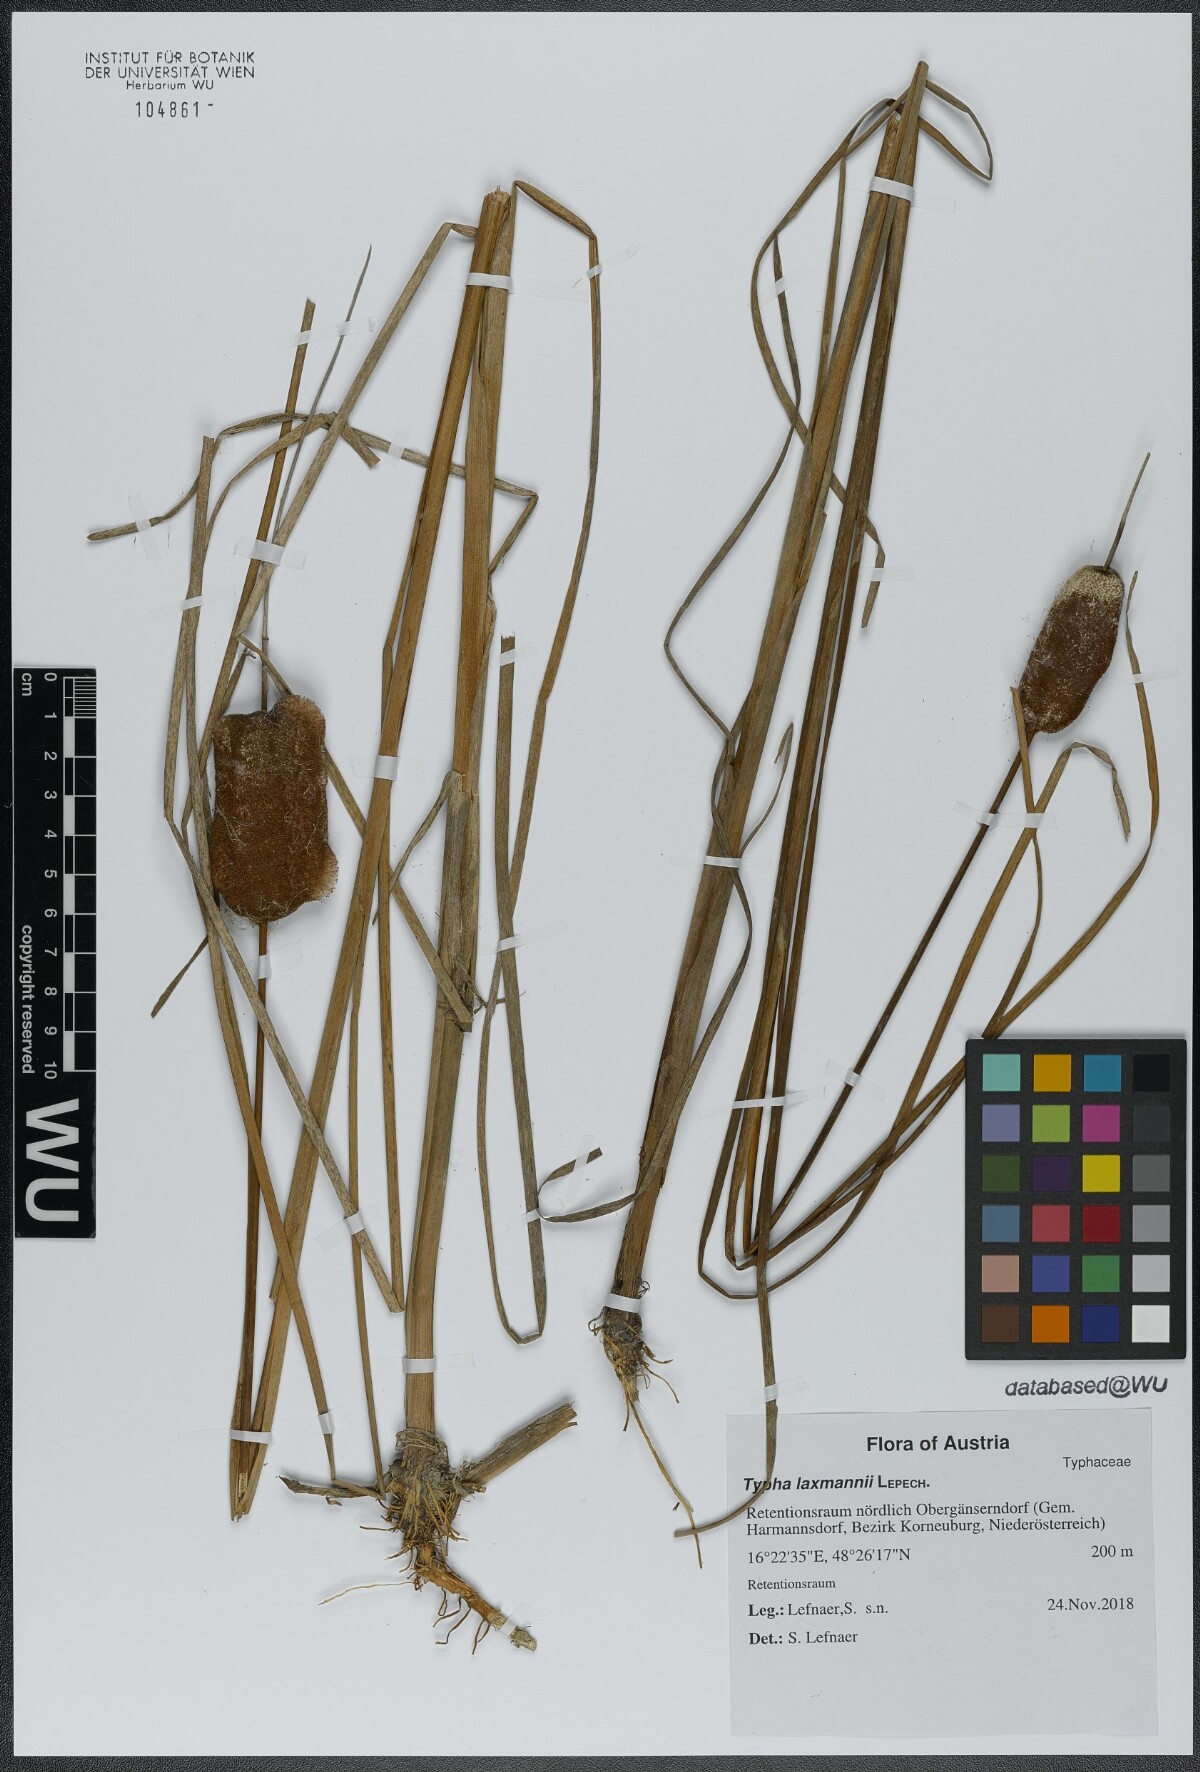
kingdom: Plantae
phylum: Tracheophyta
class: Liliopsida
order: Poales
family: Typhaceae
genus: Typha
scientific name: Typha laxmannii
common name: Laxman’s bulrush
